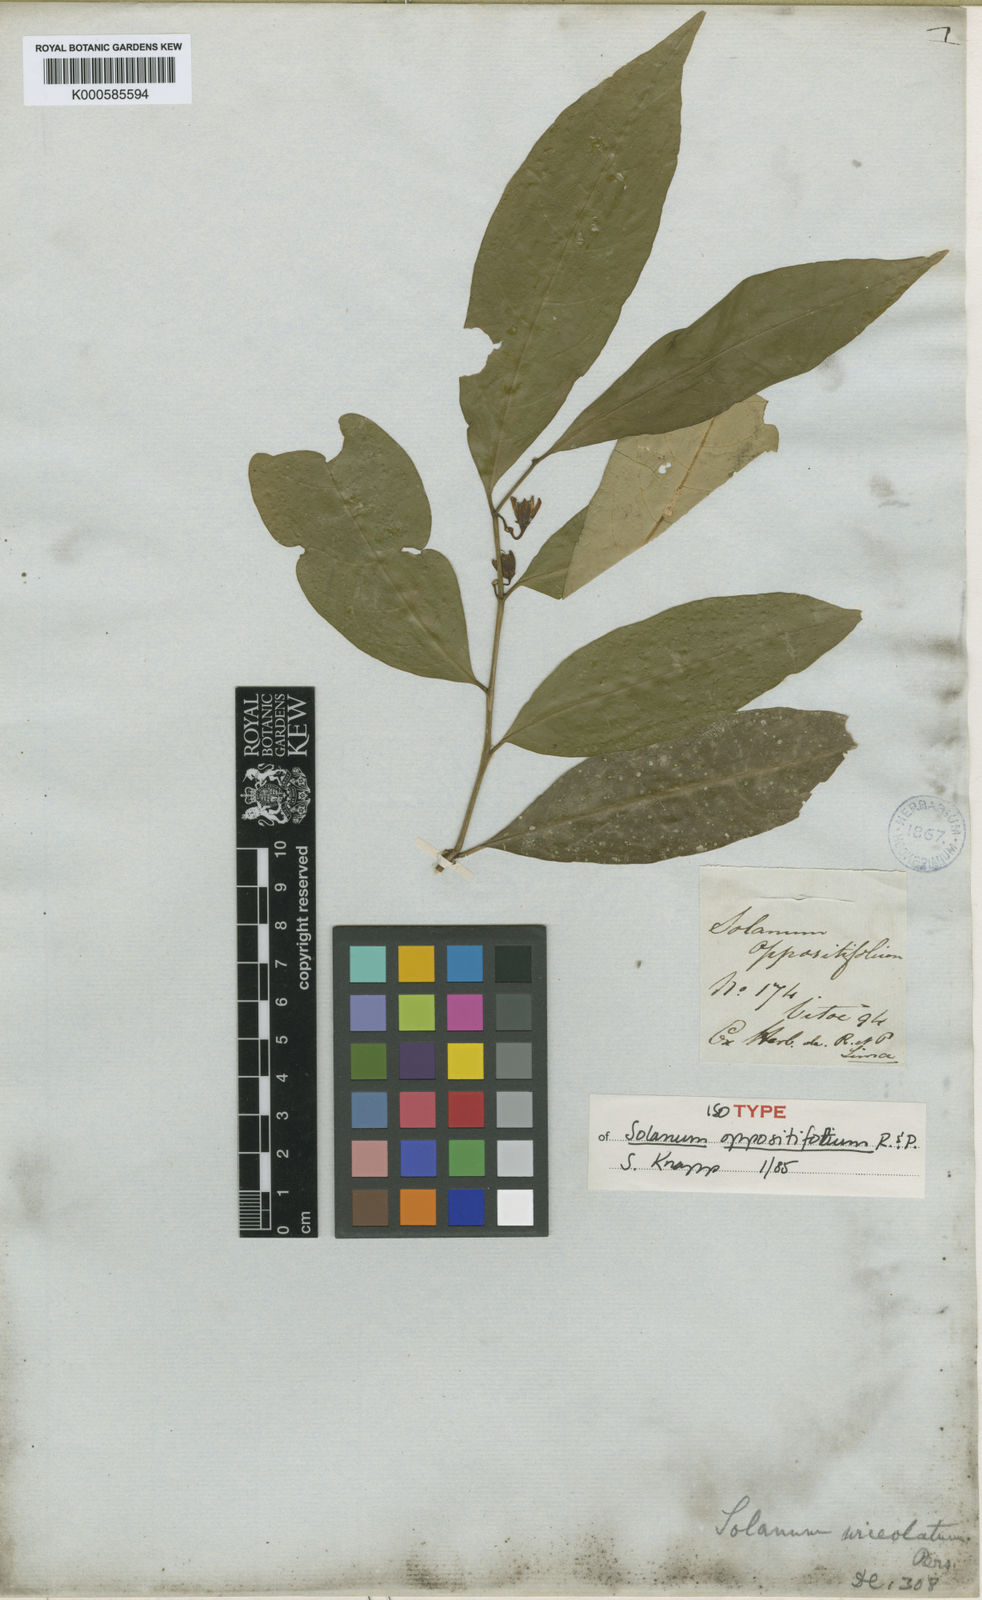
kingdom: Plantae
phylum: Tracheophyta
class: Magnoliopsida
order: Solanales
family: Solanaceae
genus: Solanum
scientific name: Solanum oppositifolium
